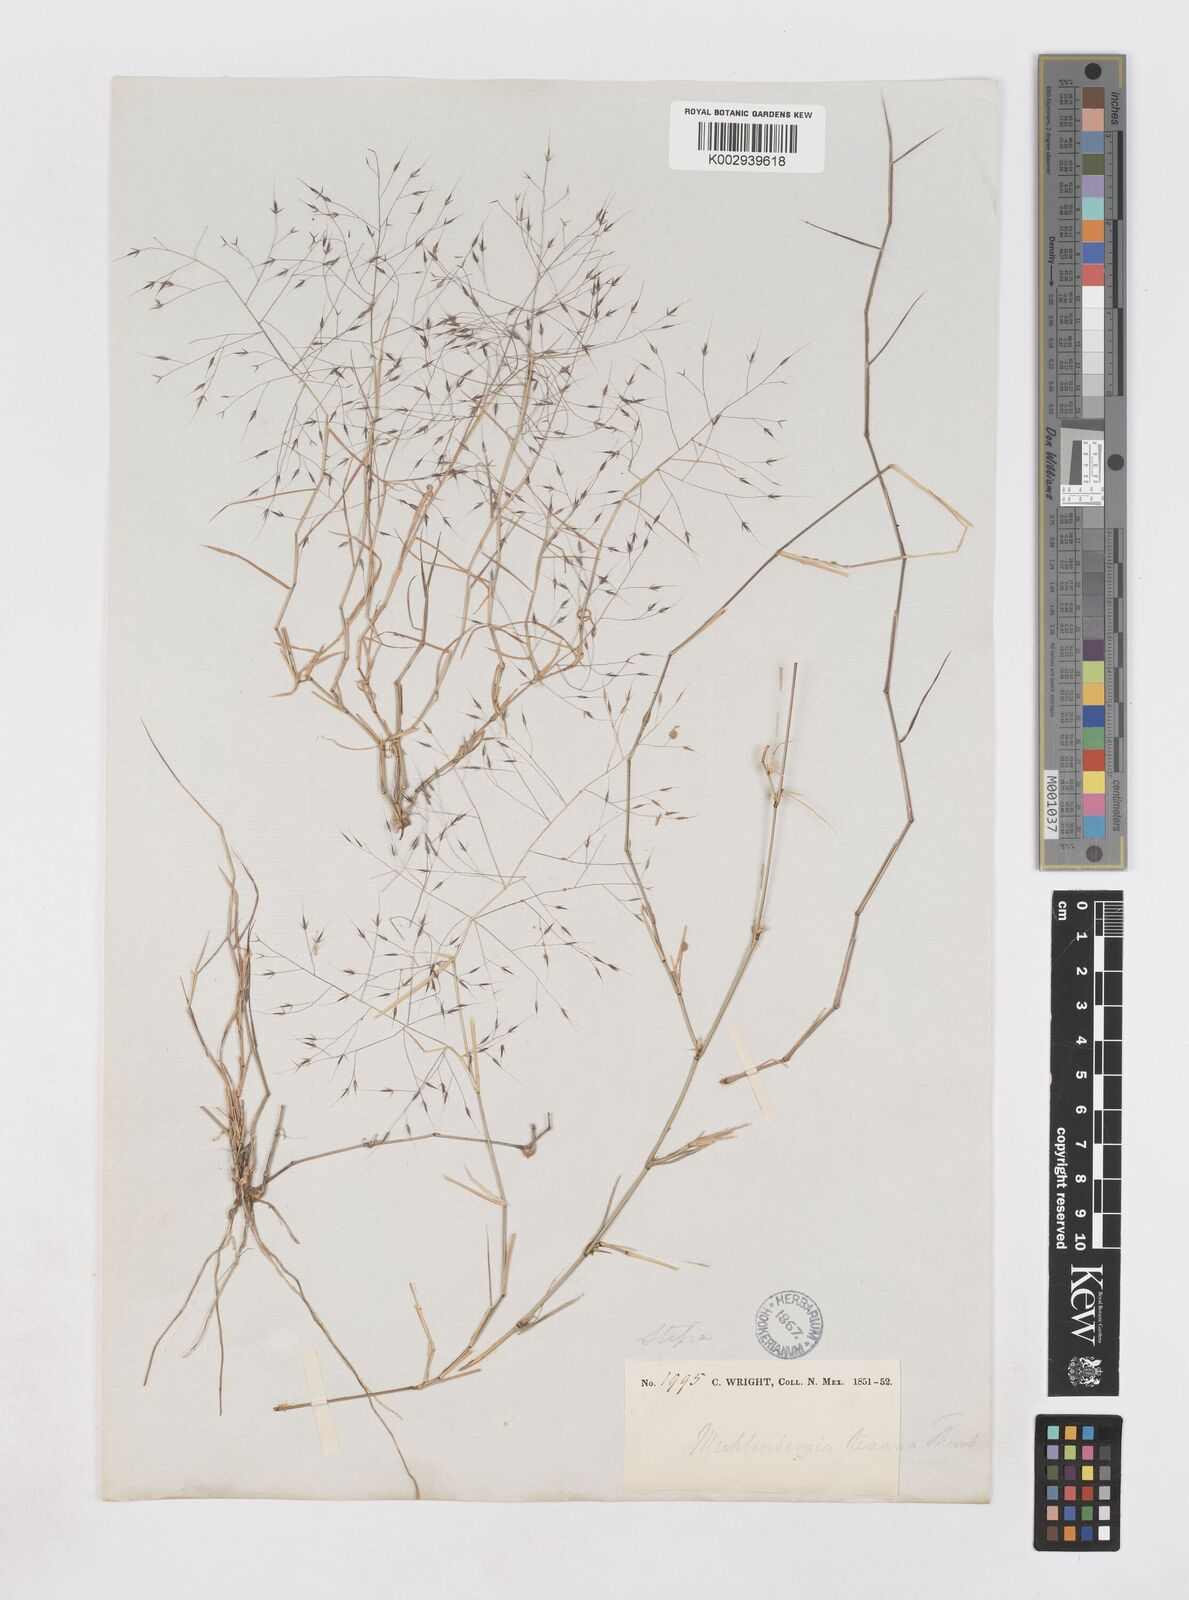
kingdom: Plantae
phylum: Tracheophyta
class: Liliopsida
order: Poales
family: Poaceae
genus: Muhlenbergia
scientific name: Muhlenbergia porteri
